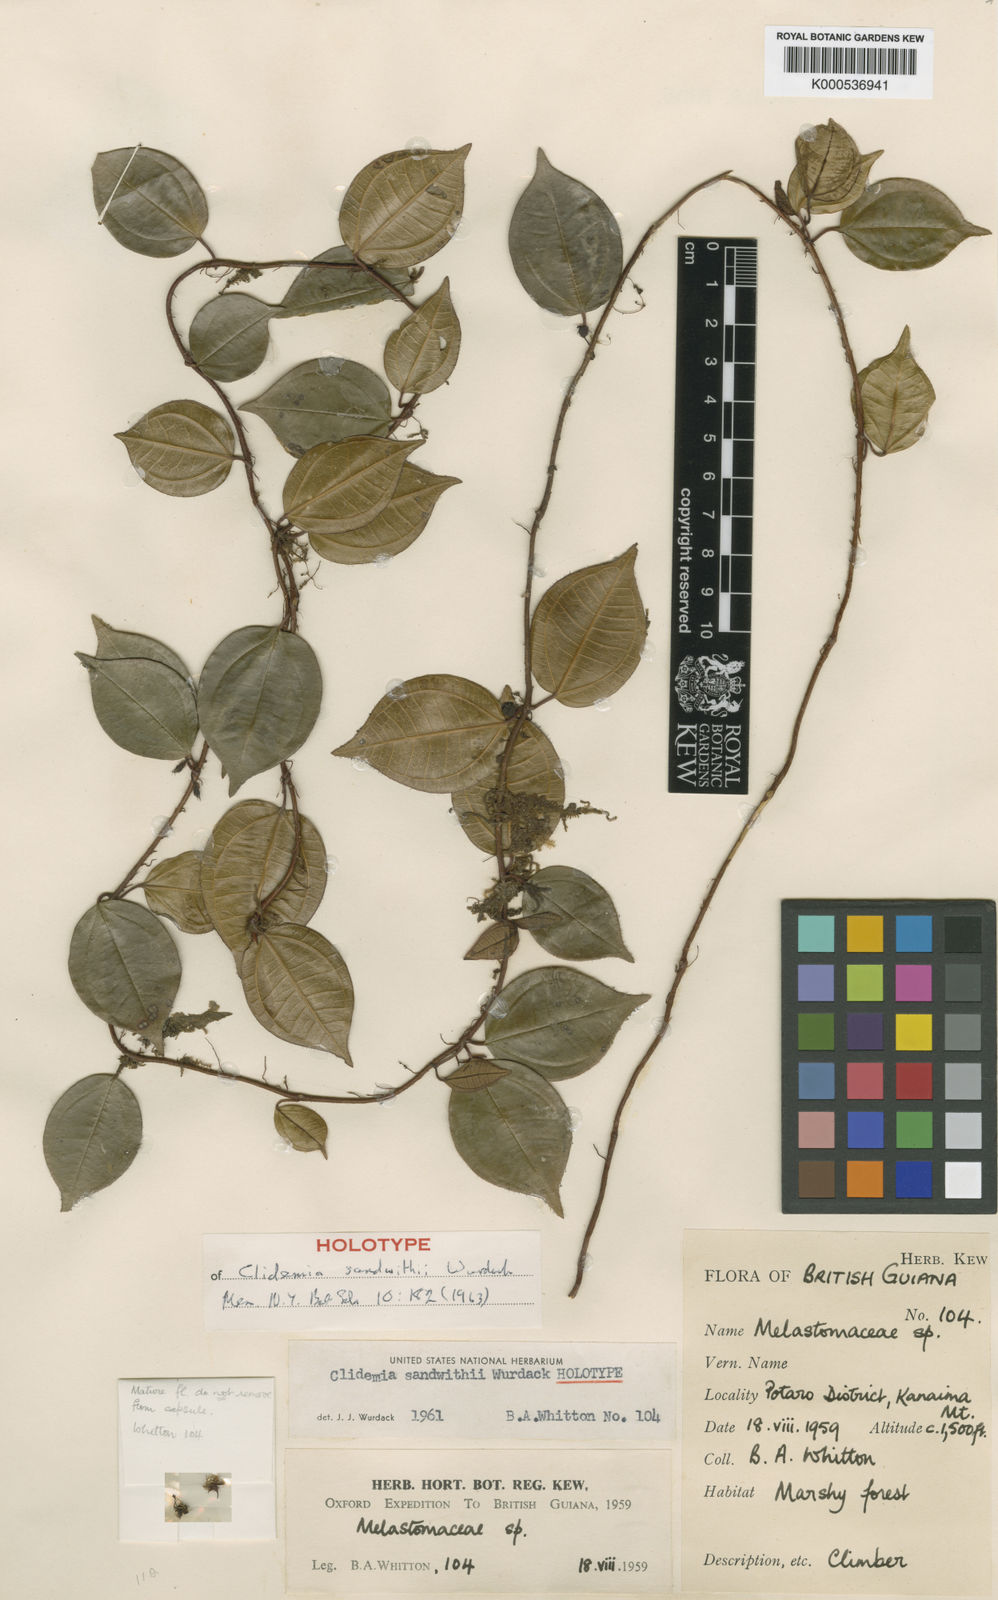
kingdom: Plantae
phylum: Tracheophyta
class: Magnoliopsida
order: Myrtales
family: Melastomataceae
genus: Miconia
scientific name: Miconia sandwithii
